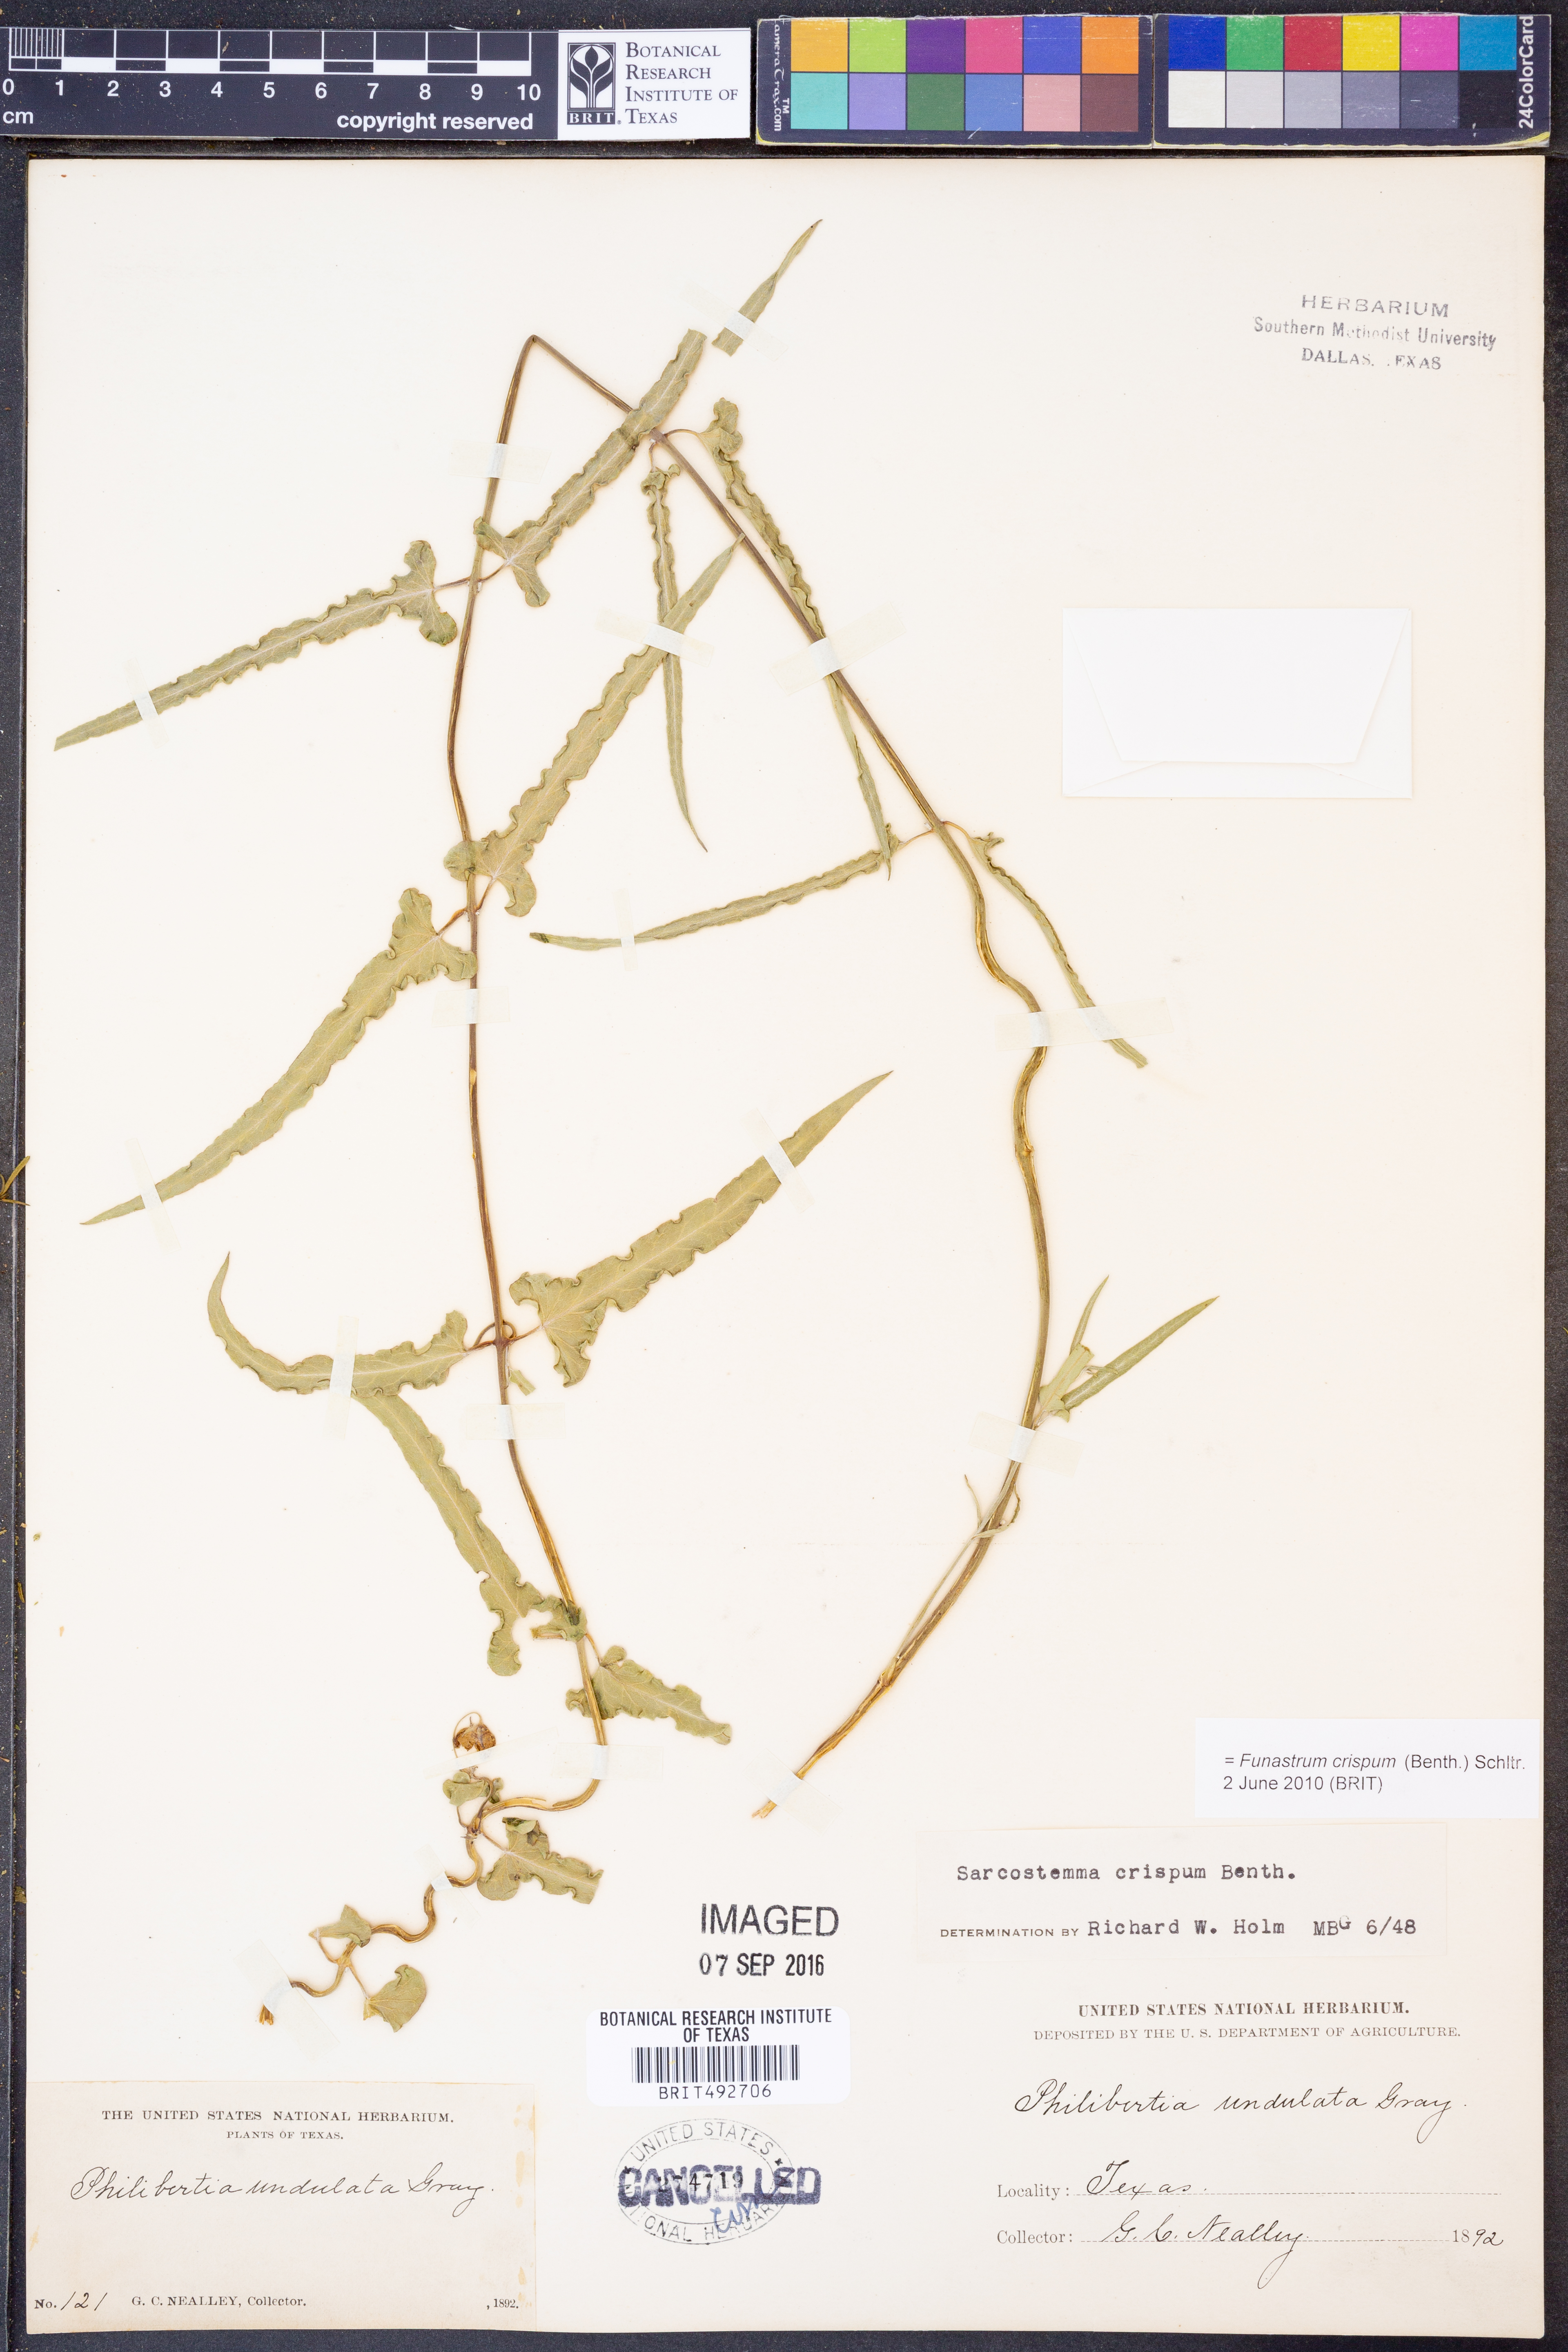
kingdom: Plantae
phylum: Tracheophyta
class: Magnoliopsida
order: Gentianales
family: Apocynaceae
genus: Funastrum
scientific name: Funastrum crispum
